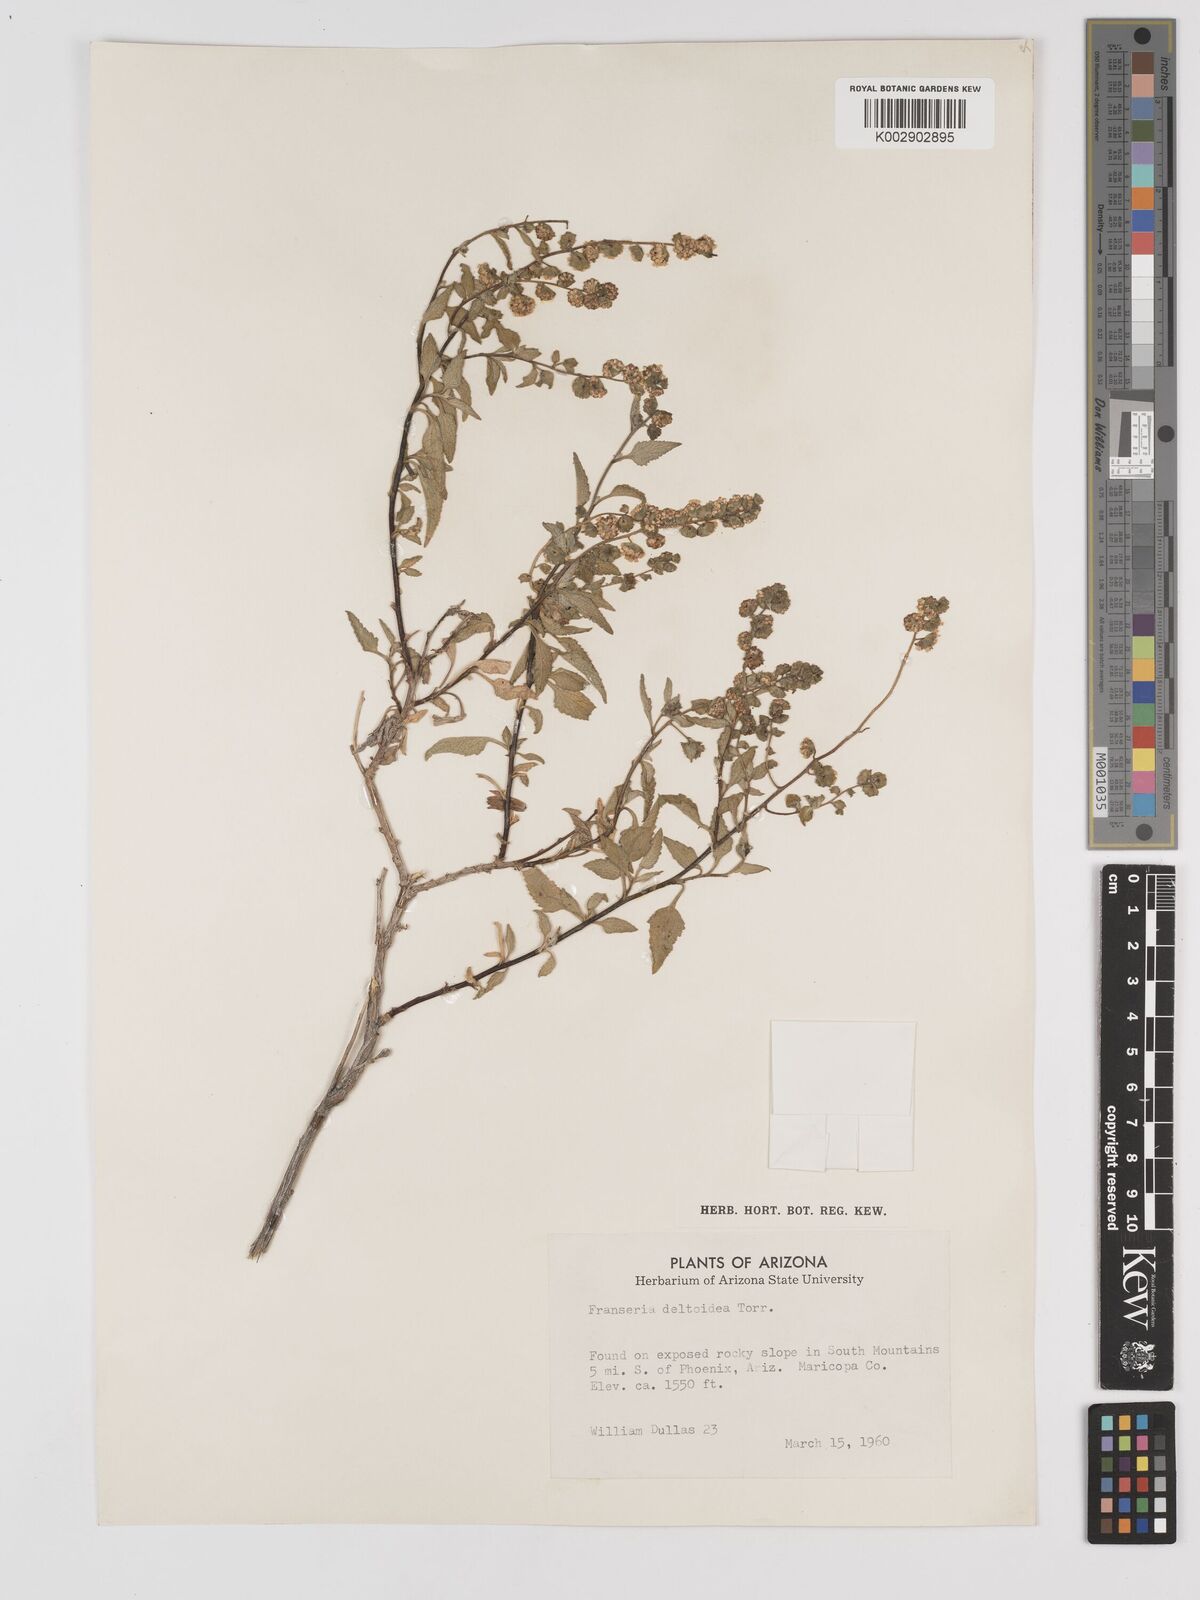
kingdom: Plantae
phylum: Tracheophyta
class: Magnoliopsida
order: Asterales
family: Asteraceae
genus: Ambrosia
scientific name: Ambrosia
